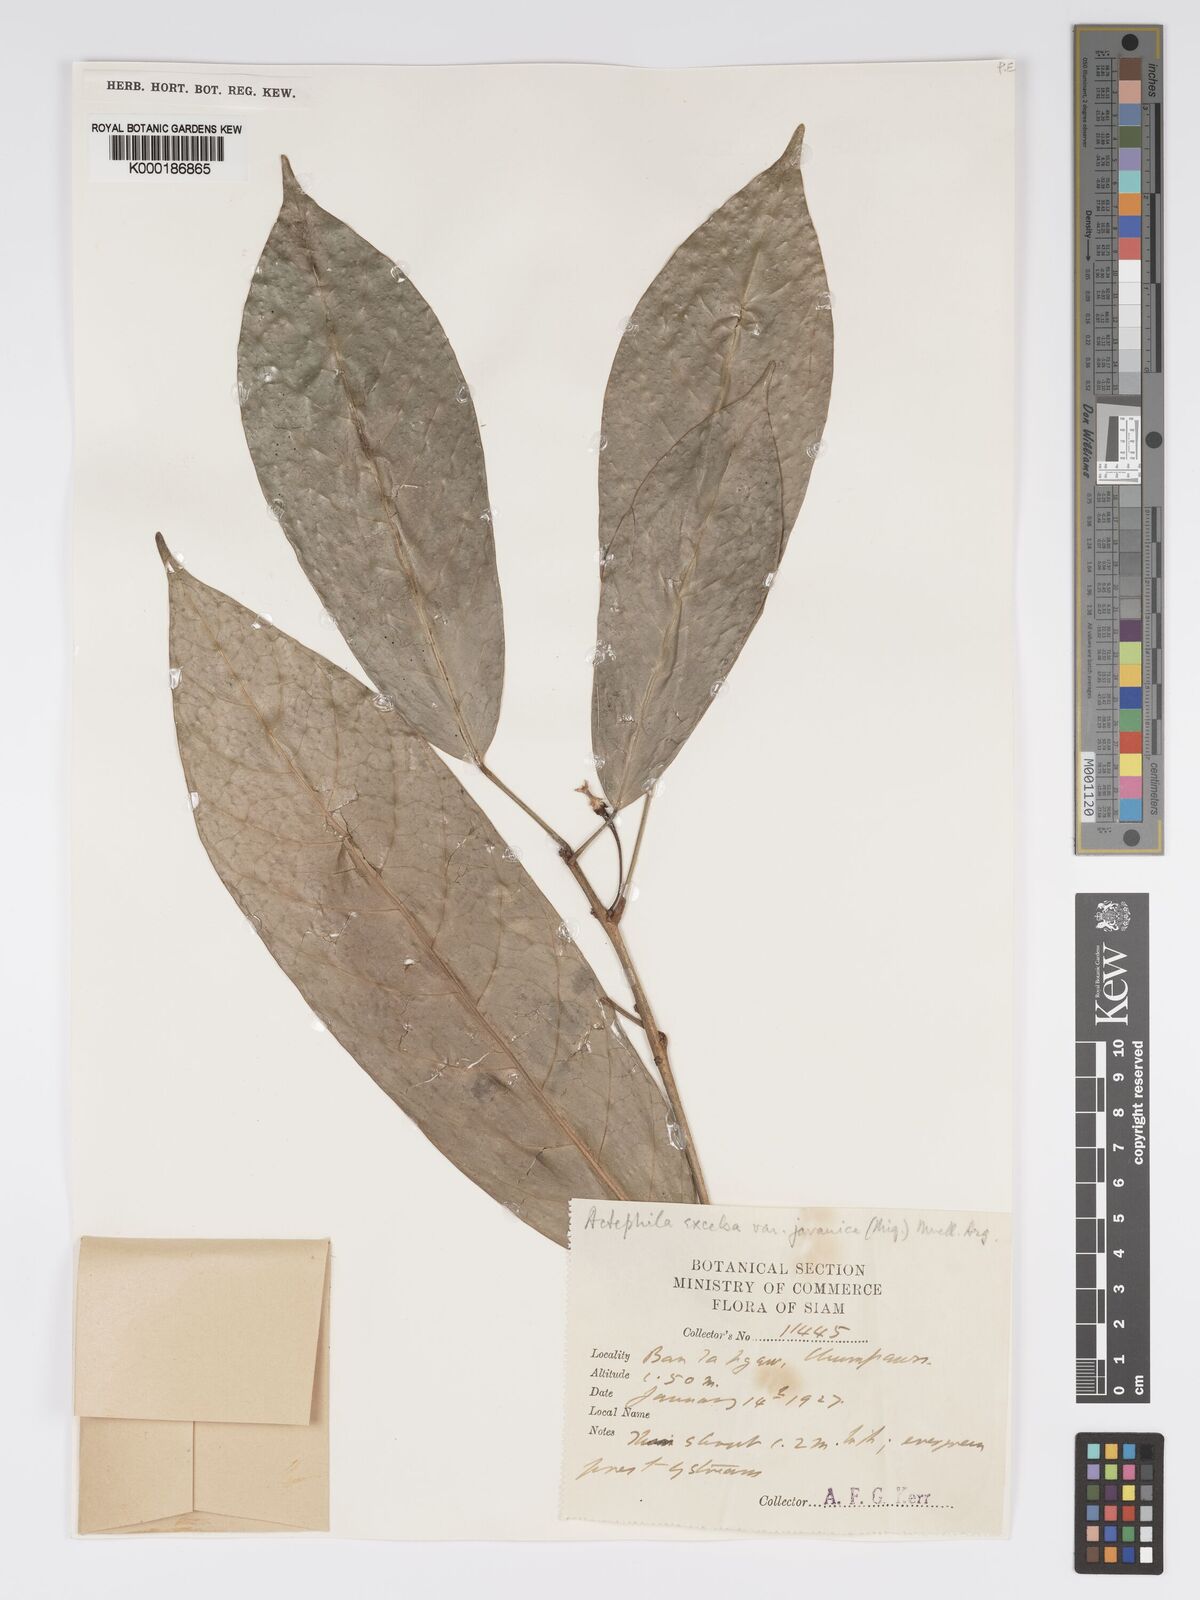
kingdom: Plantae
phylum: Tracheophyta
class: Magnoliopsida
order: Malpighiales
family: Phyllanthaceae
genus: Actephila
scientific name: Actephila
